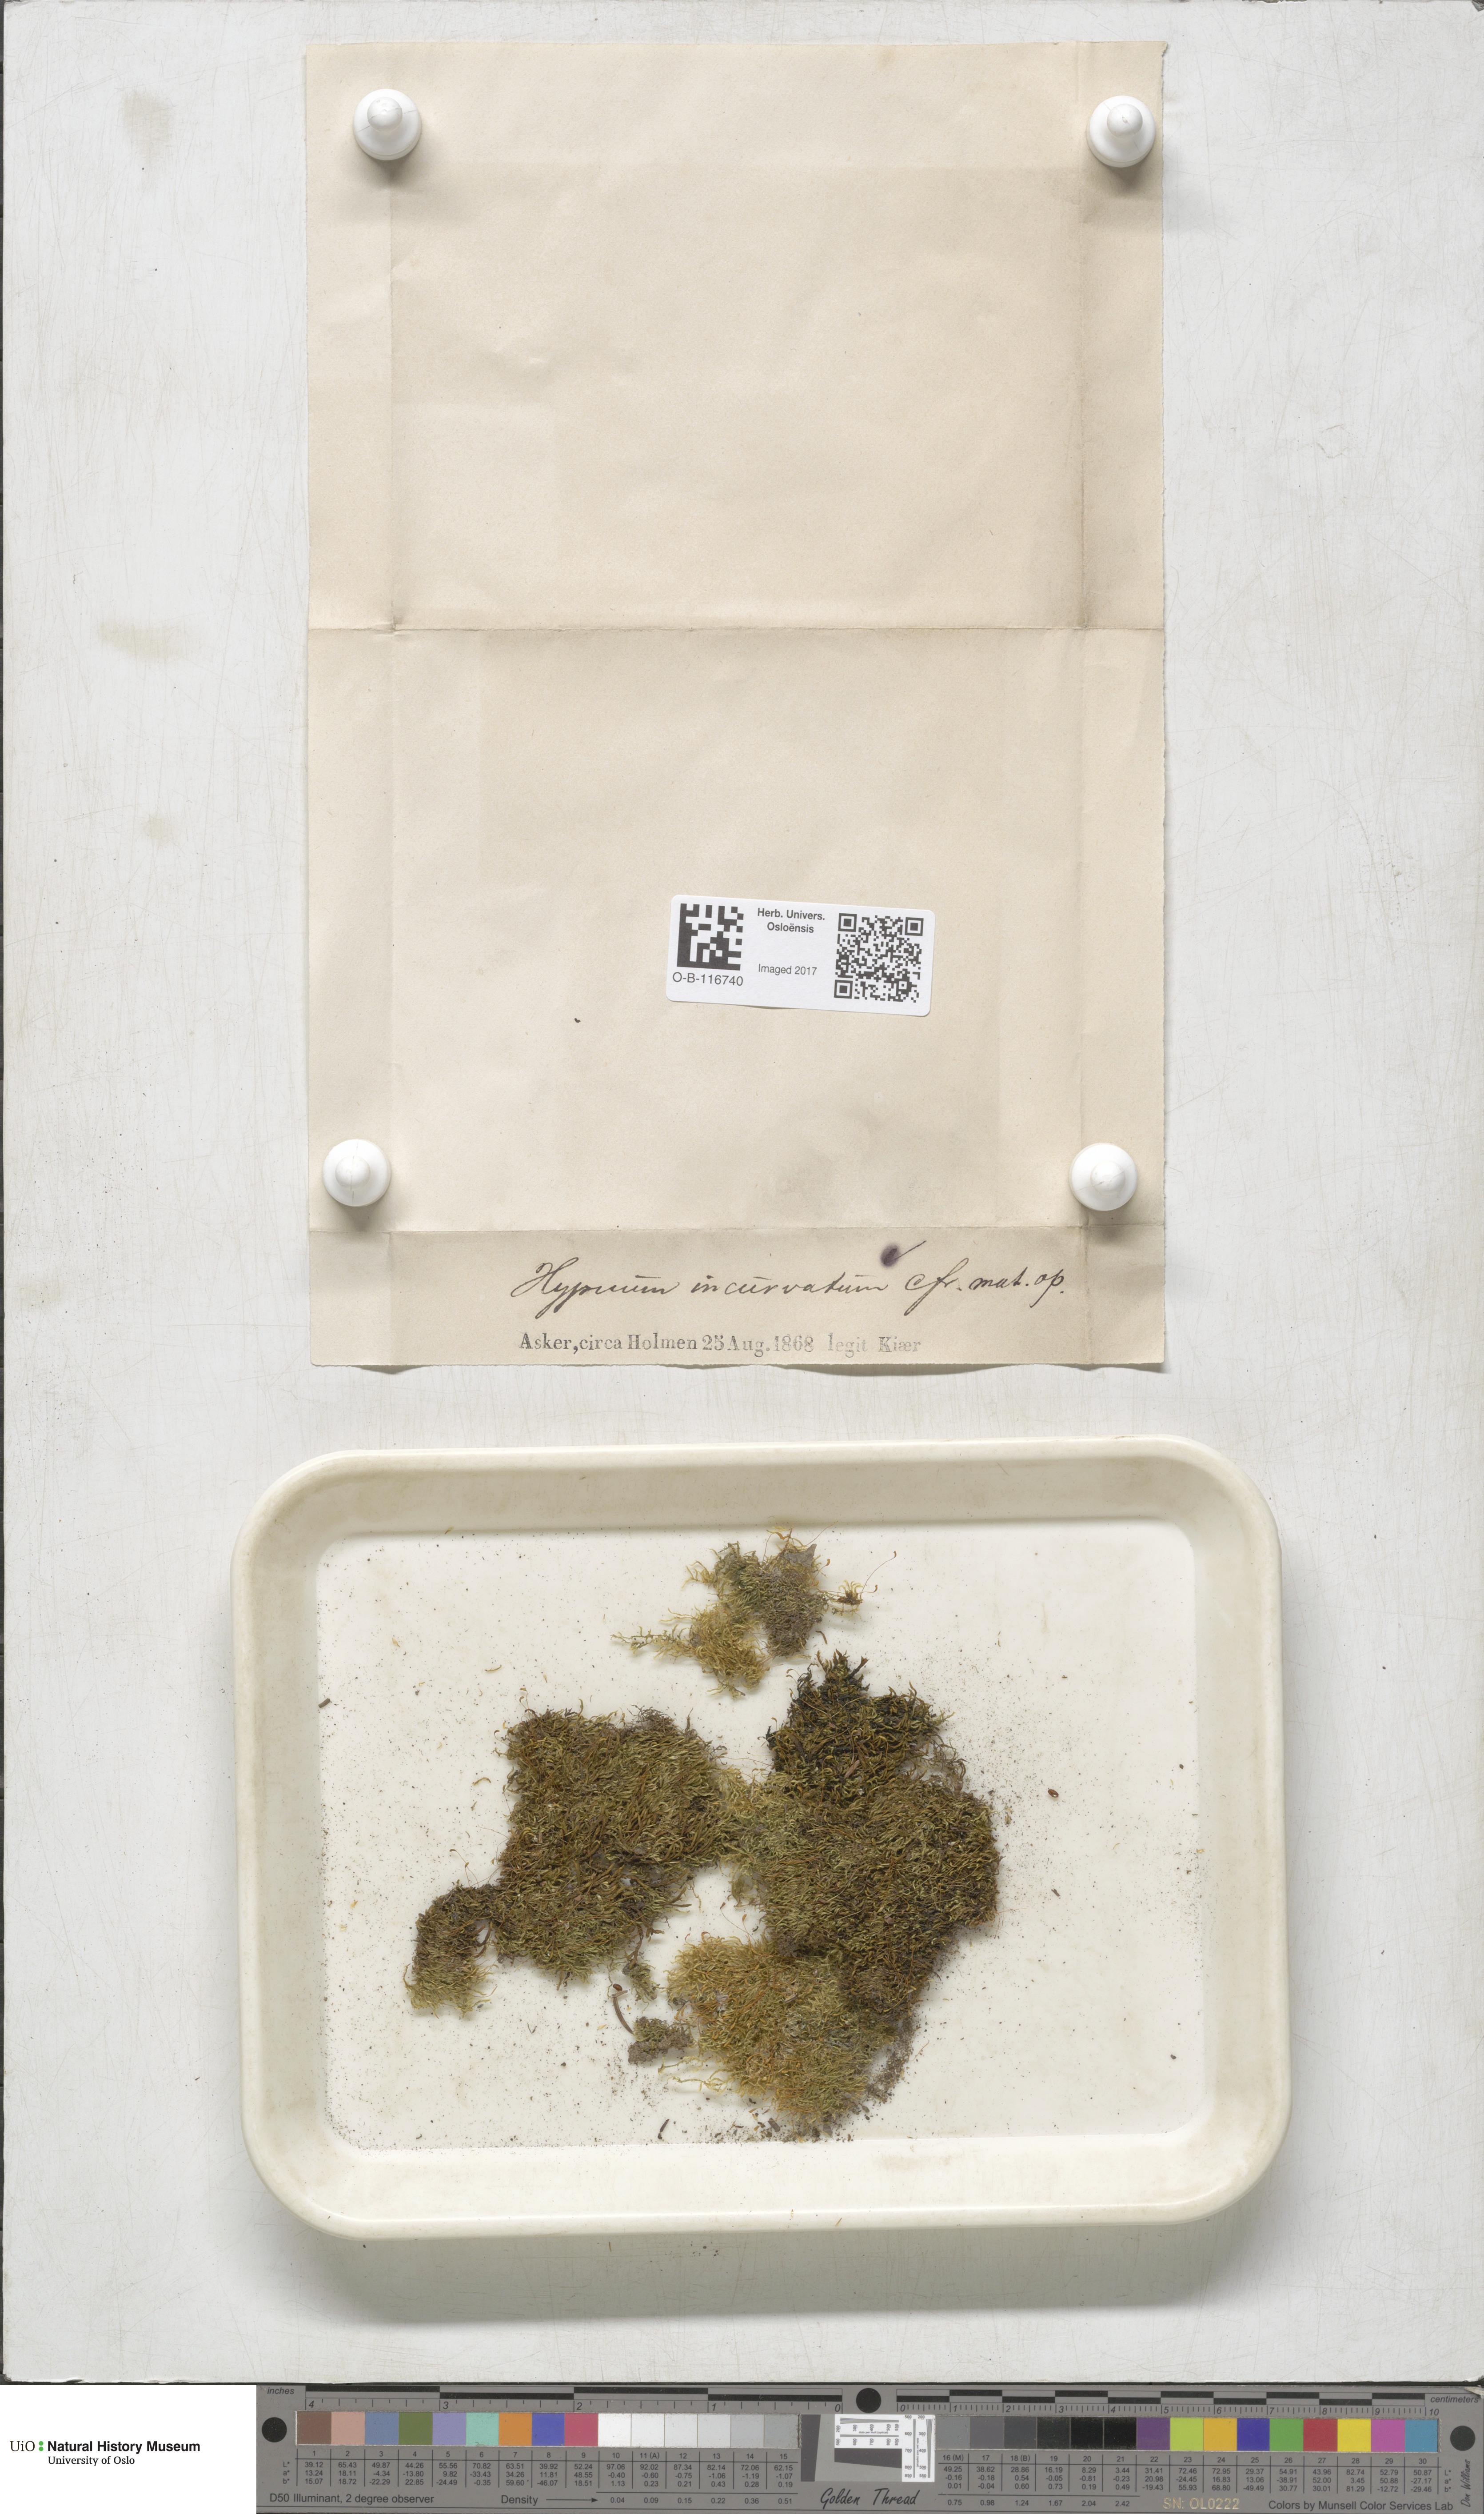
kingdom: Plantae
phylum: Bryophyta
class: Bryopsida
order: Hypnales
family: Pylaisiaceae
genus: Homomallium
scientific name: Homomallium incurvatum
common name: Incurved feather-moss
